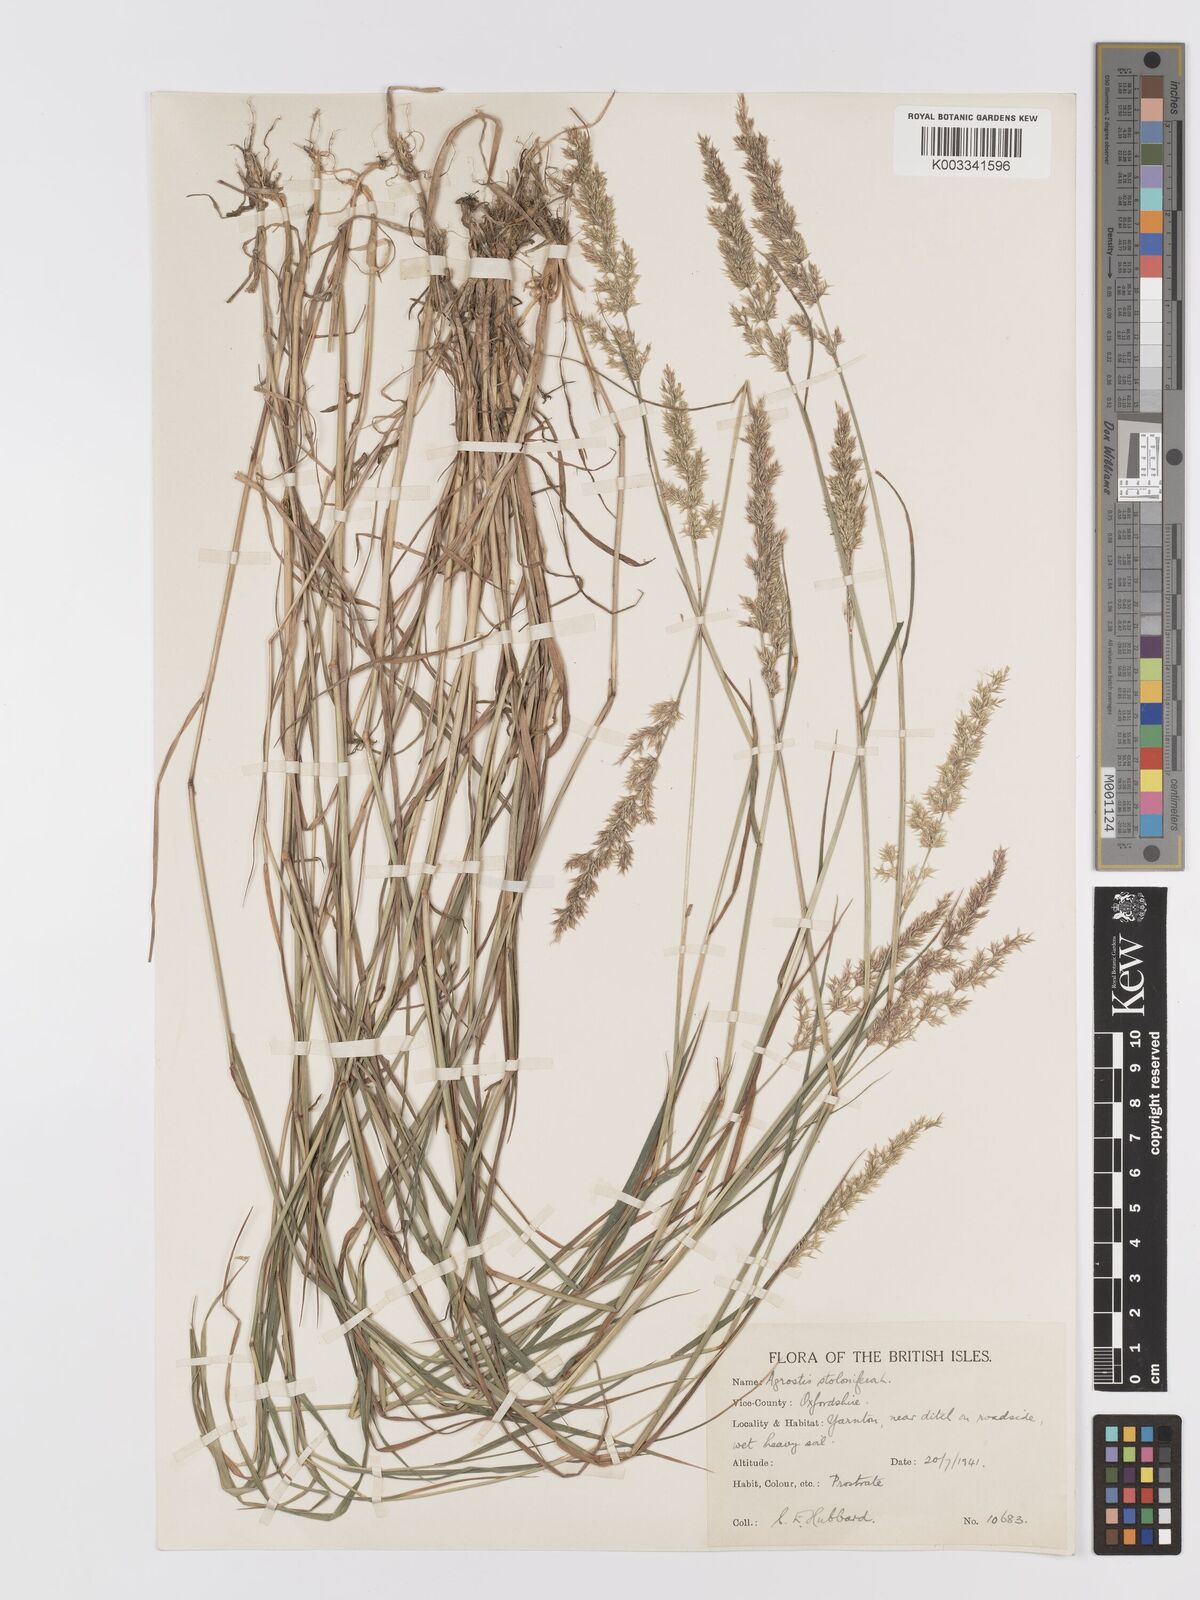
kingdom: Plantae
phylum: Tracheophyta
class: Liliopsida
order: Poales
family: Poaceae
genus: Agrostis
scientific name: Agrostis stolonifera
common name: Creeping bentgrass
